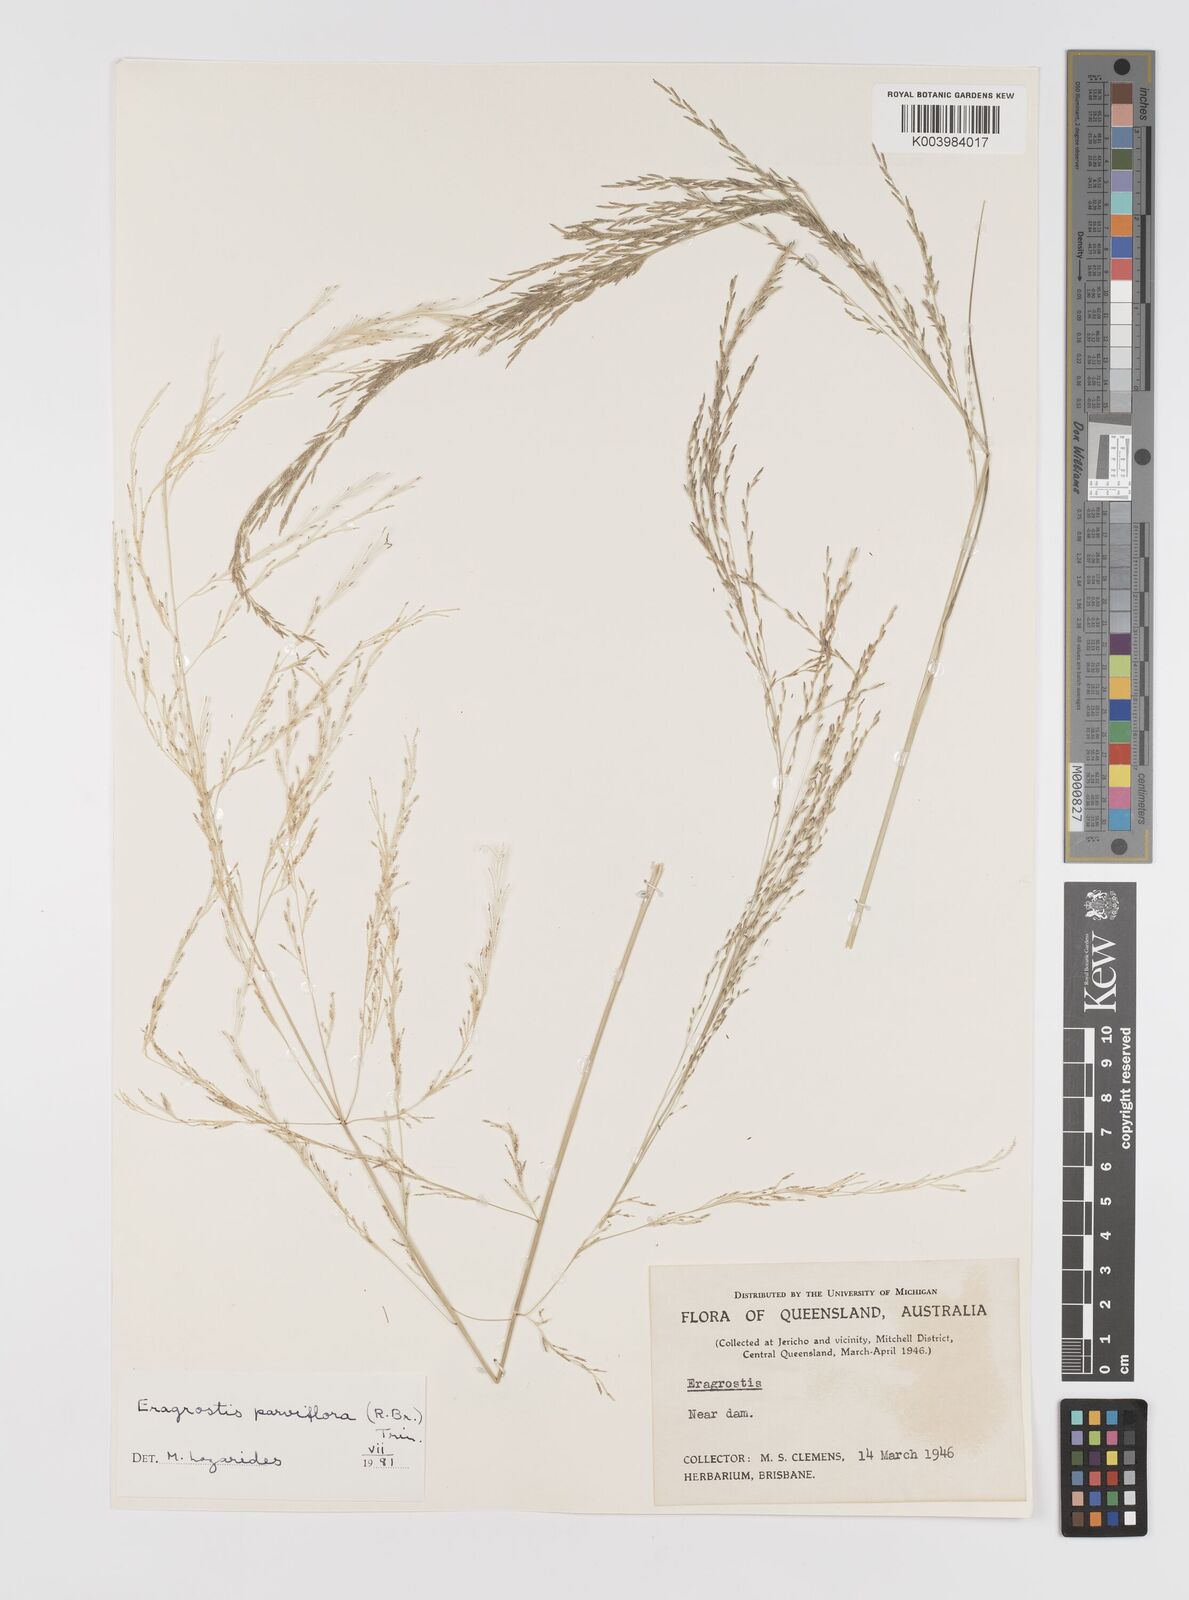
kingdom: Plantae
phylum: Tracheophyta
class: Liliopsida
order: Poales
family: Poaceae
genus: Eragrostis
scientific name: Eragrostis parviflora
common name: Weeping love-grass
